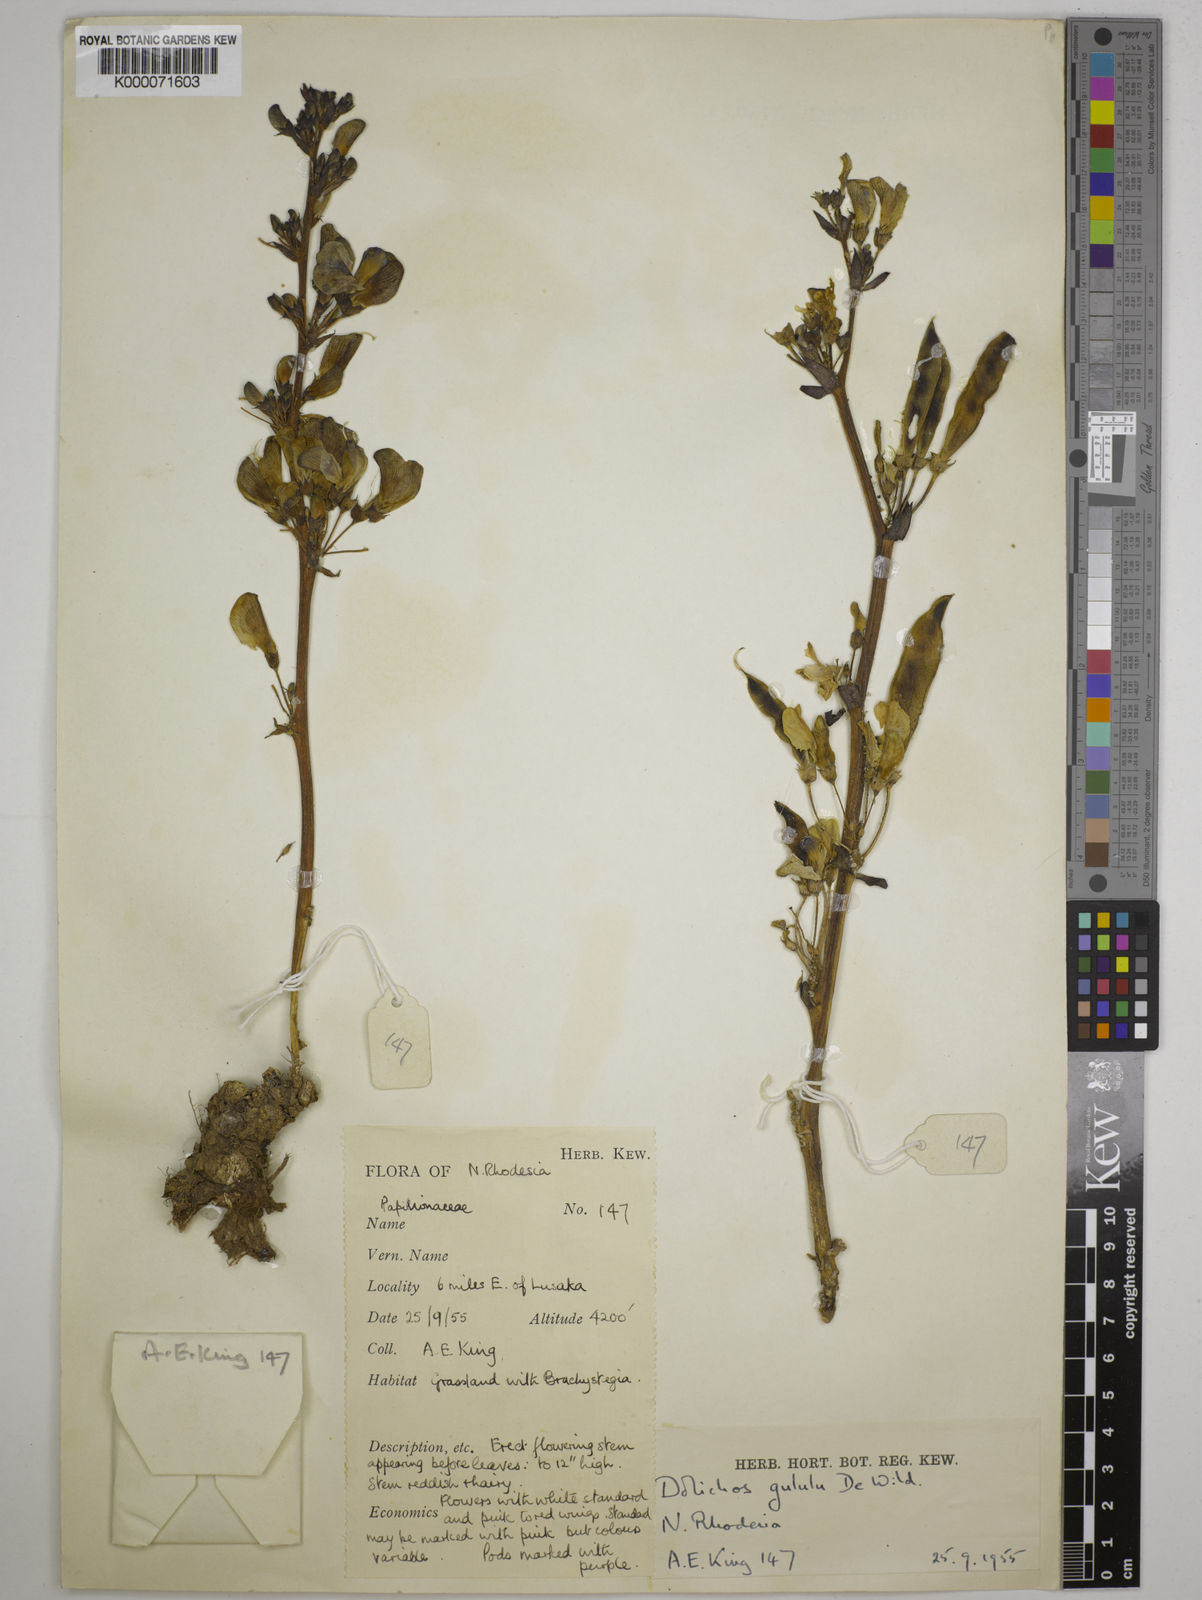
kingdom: Plantae
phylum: Tracheophyta
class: Magnoliopsida
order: Fabales
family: Fabaceae
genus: Dolichos
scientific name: Dolichos gululu
